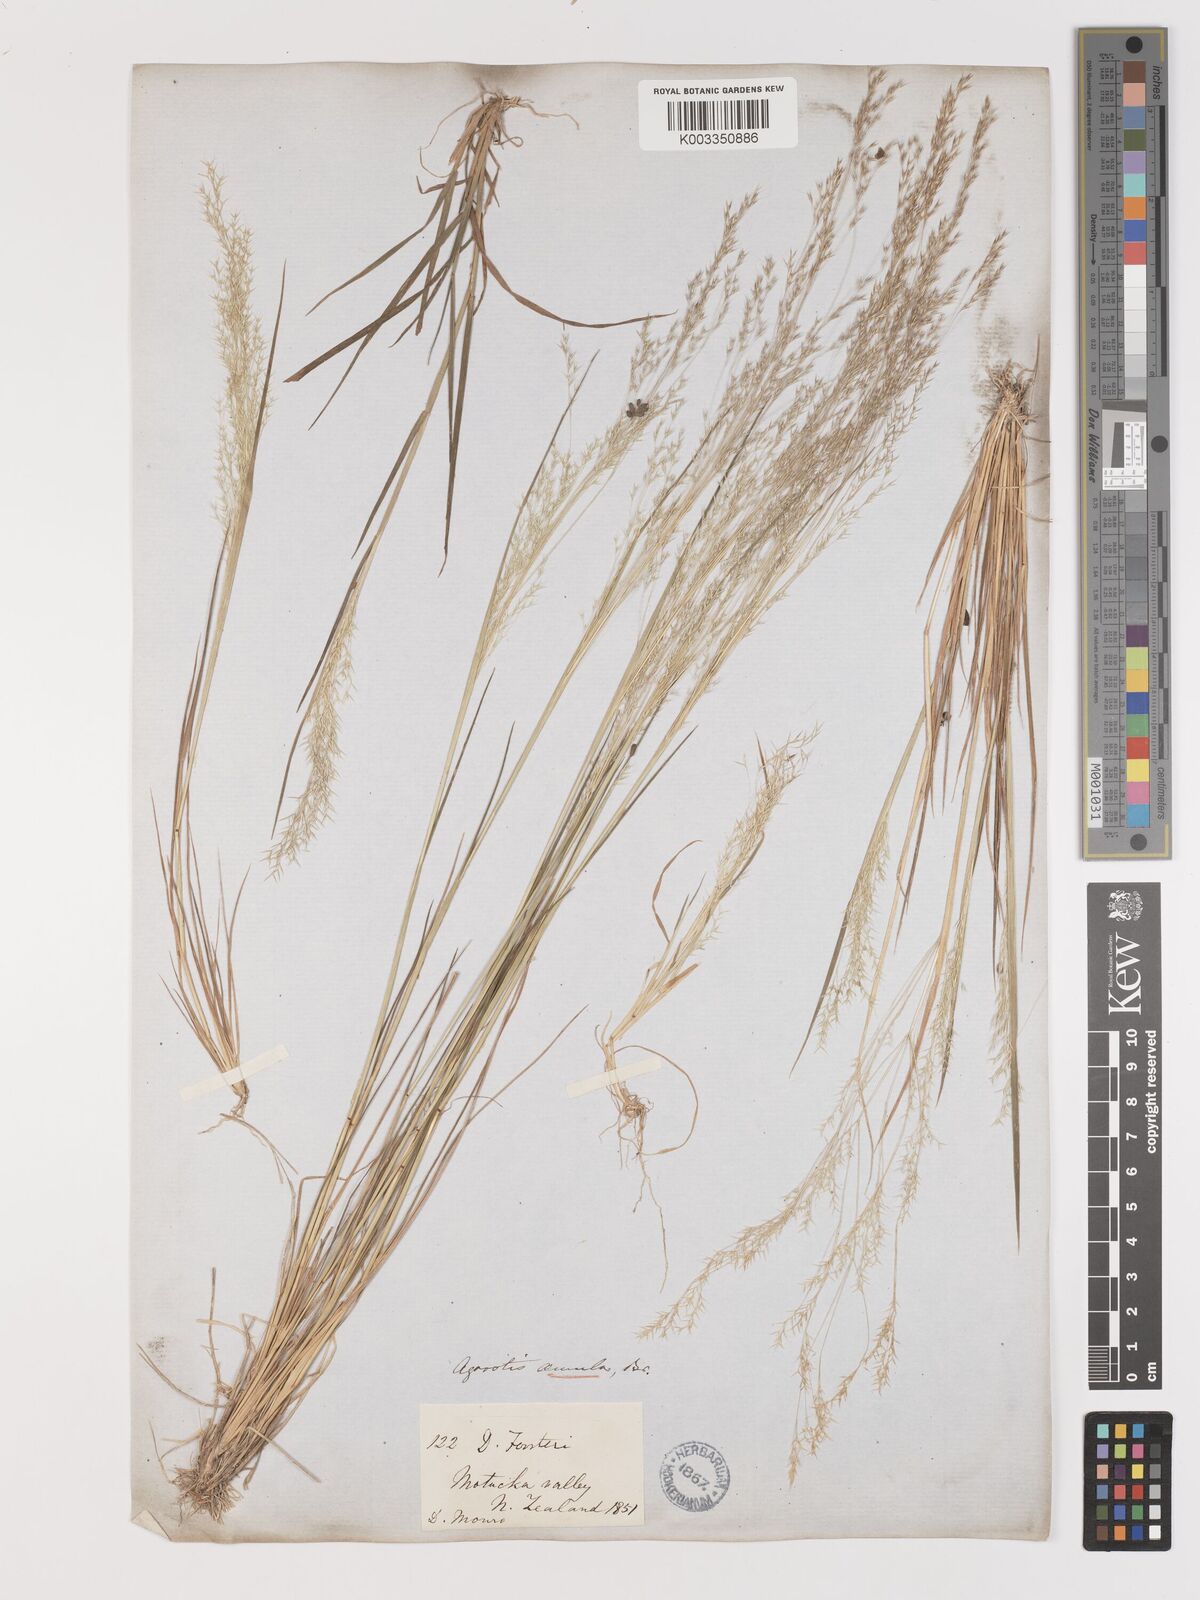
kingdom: Plantae
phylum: Tracheophyta
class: Liliopsida
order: Poales
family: Poaceae
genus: Lachnagrostis
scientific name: Lachnagrostis filiformis
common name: Bentgrass
